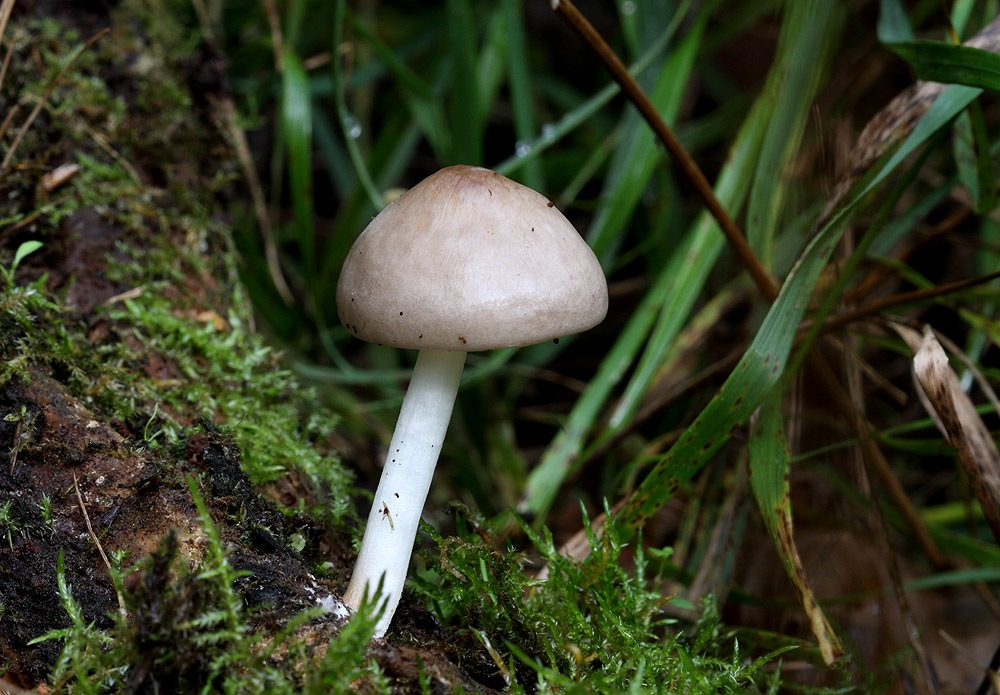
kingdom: Fungi
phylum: Basidiomycota
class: Agaricomycetes
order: Agaricales
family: Pluteaceae
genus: Pluteus
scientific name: Pluteus salicinus
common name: stiv skærmhat
